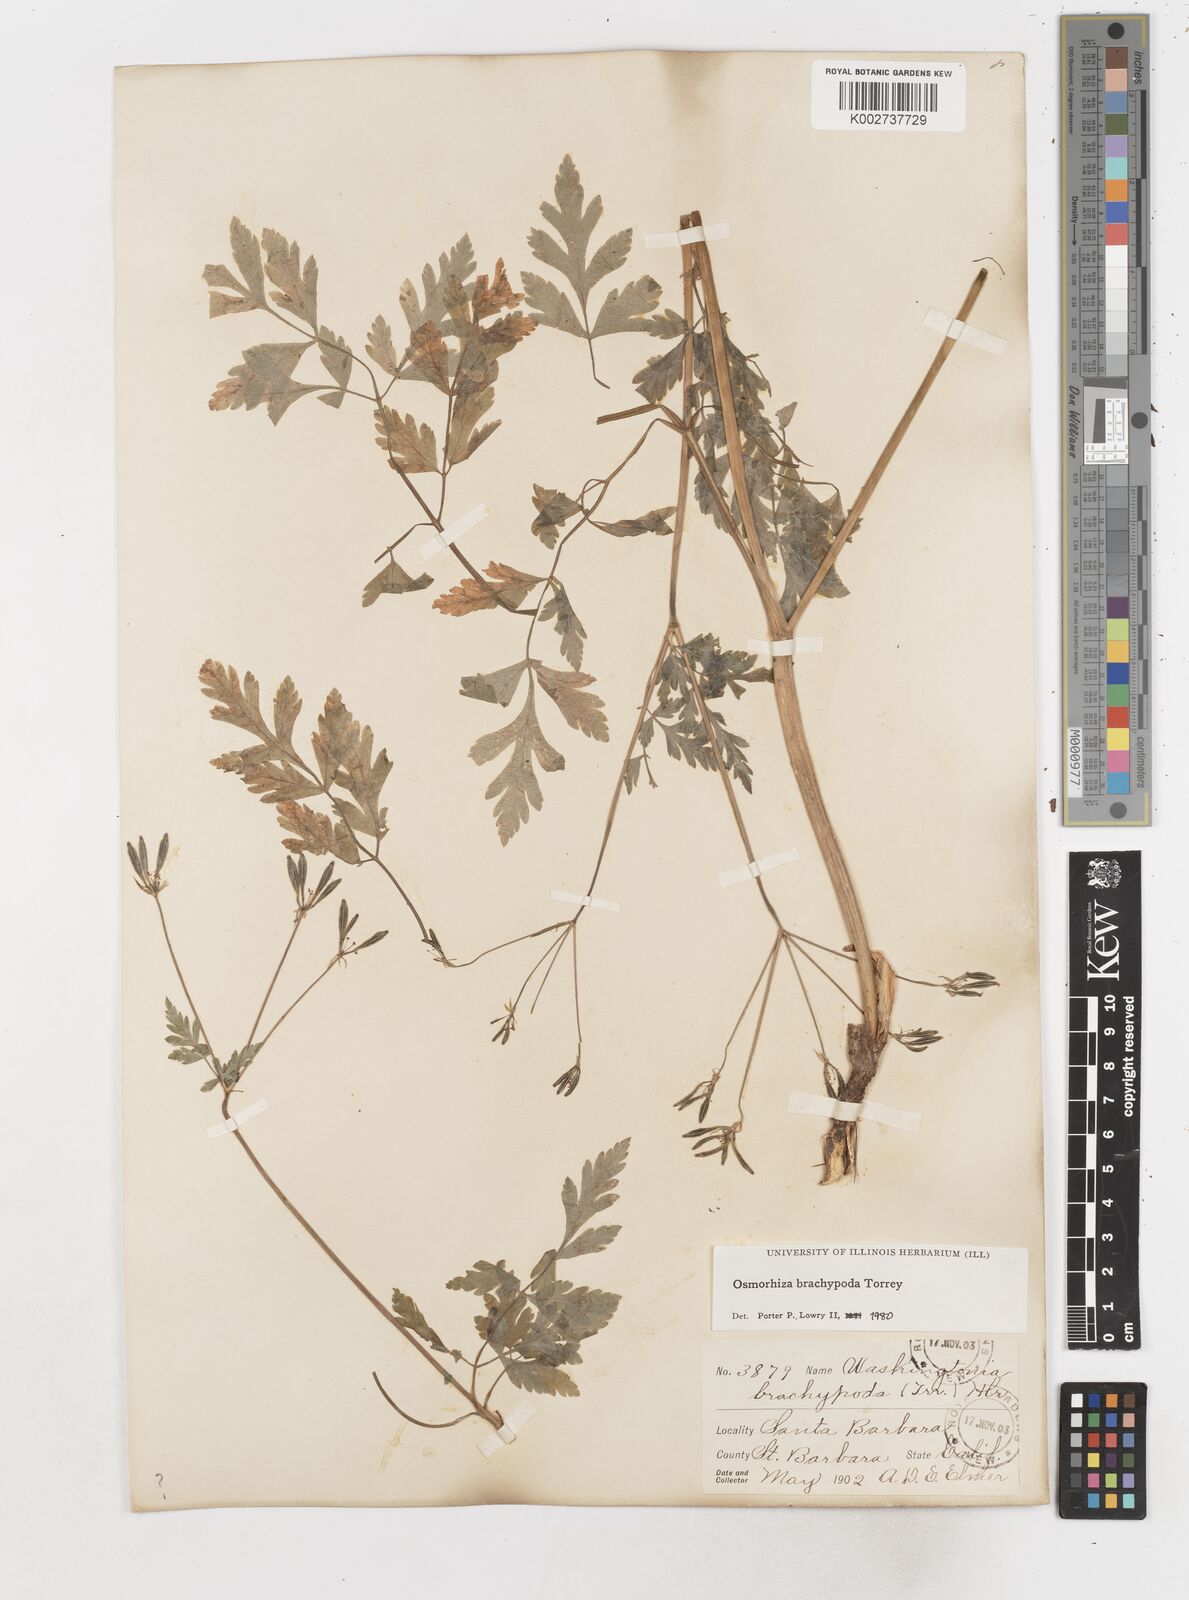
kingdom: Plantae
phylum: Tracheophyta
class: Magnoliopsida
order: Apiales
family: Apiaceae
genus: Osmorhiza
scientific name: Osmorhiza brachypoda
